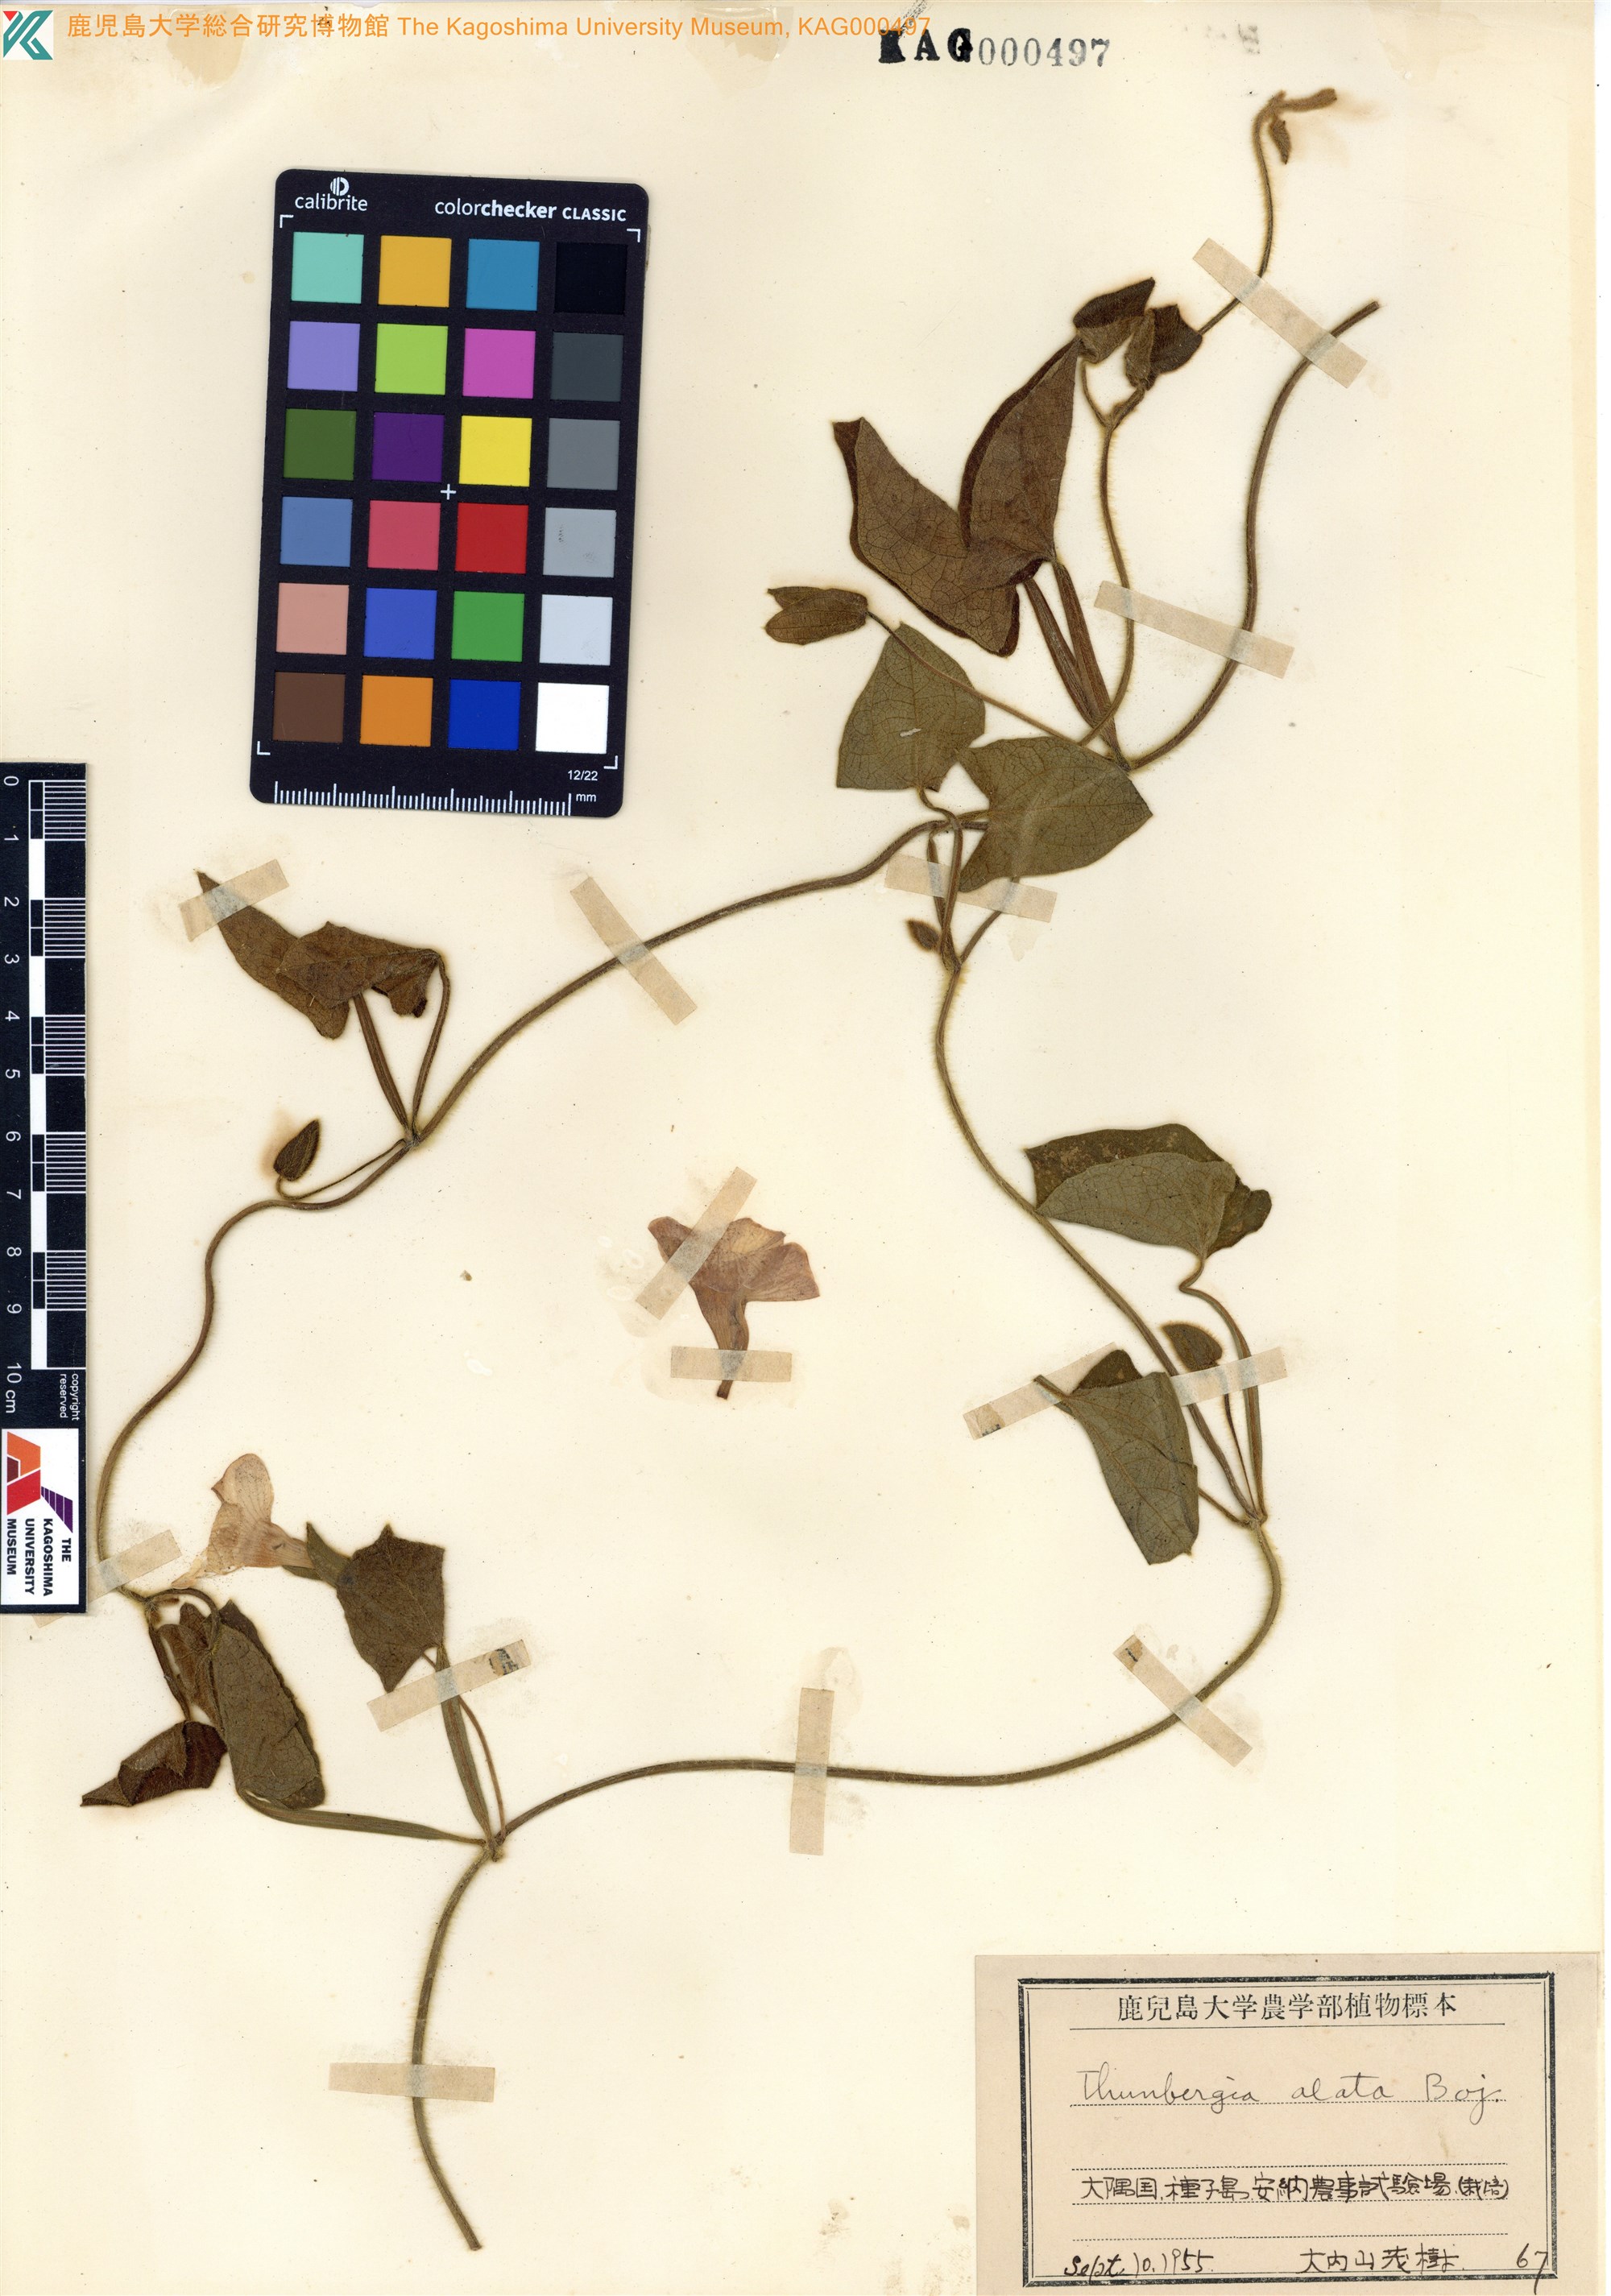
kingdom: Plantae
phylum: Tracheophyta
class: Magnoliopsida
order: Lamiales
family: Acanthaceae
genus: Thunbergia
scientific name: Thunbergia alata
